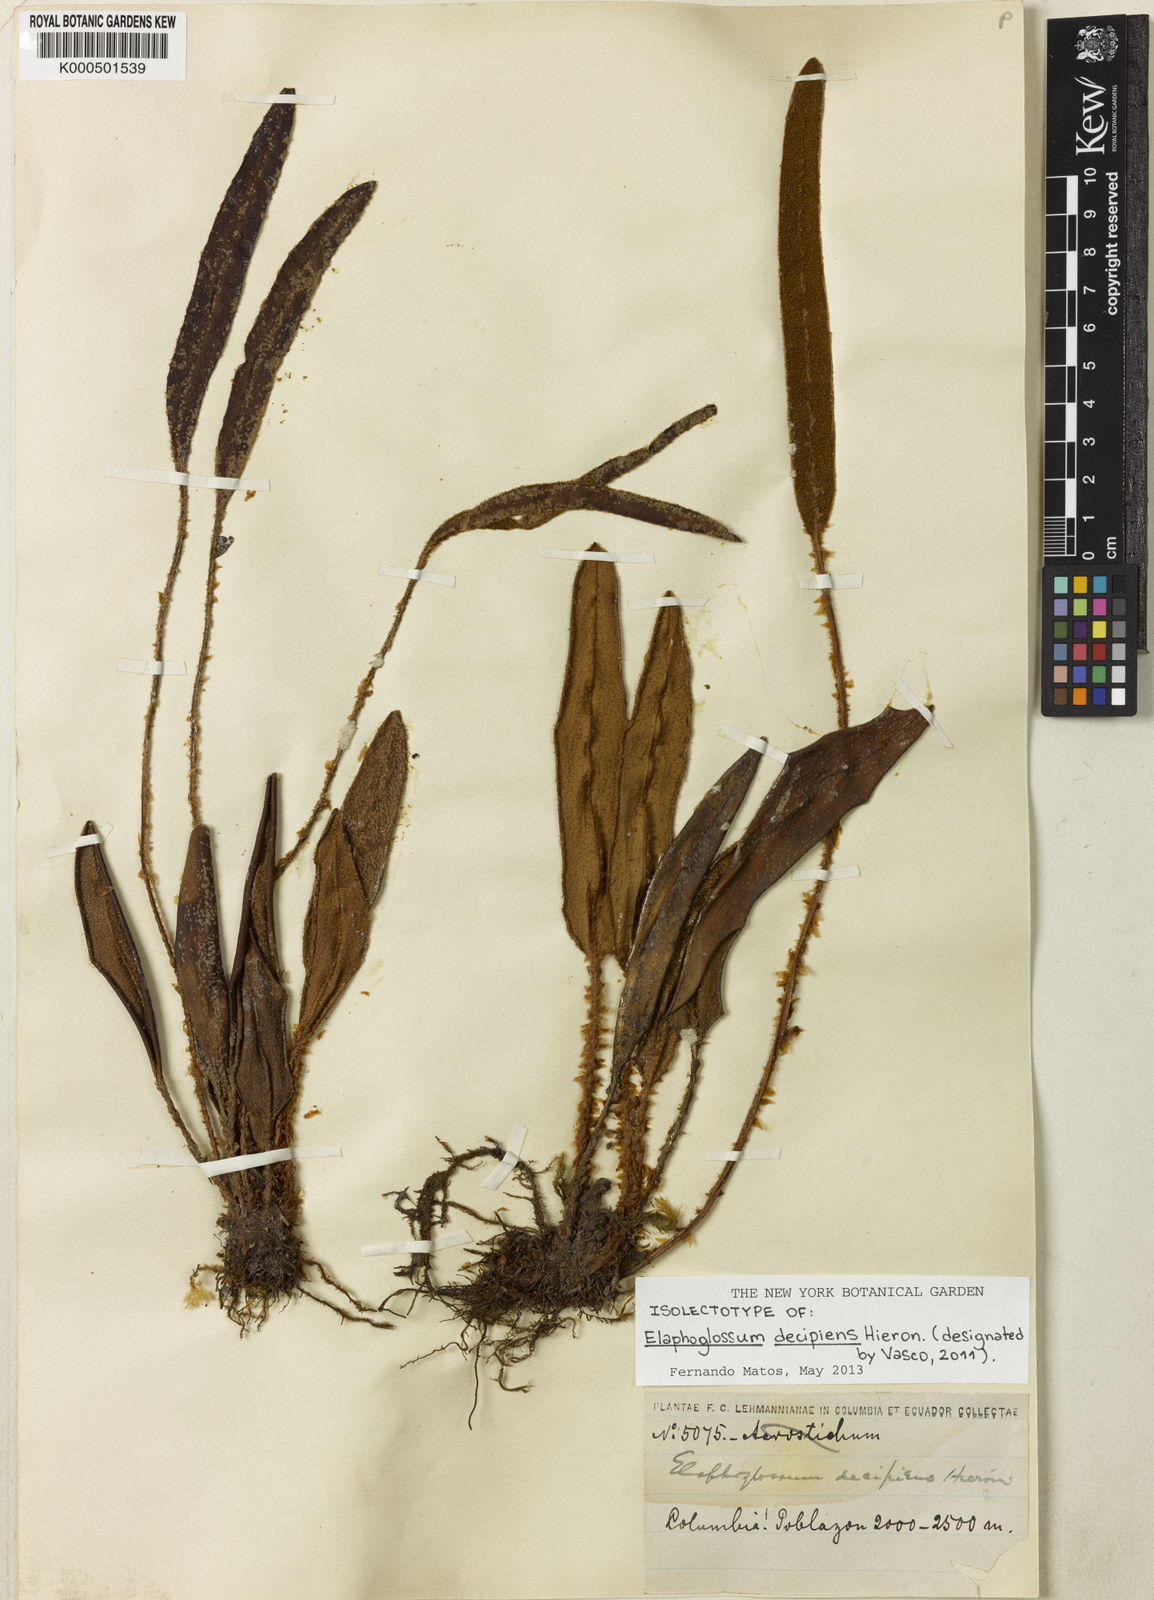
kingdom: Plantae
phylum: Tracheophyta
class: Polypodiopsida
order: Polypodiales
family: Dryopteridaceae
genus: Elaphoglossum
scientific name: Elaphoglossum lehmannianum
